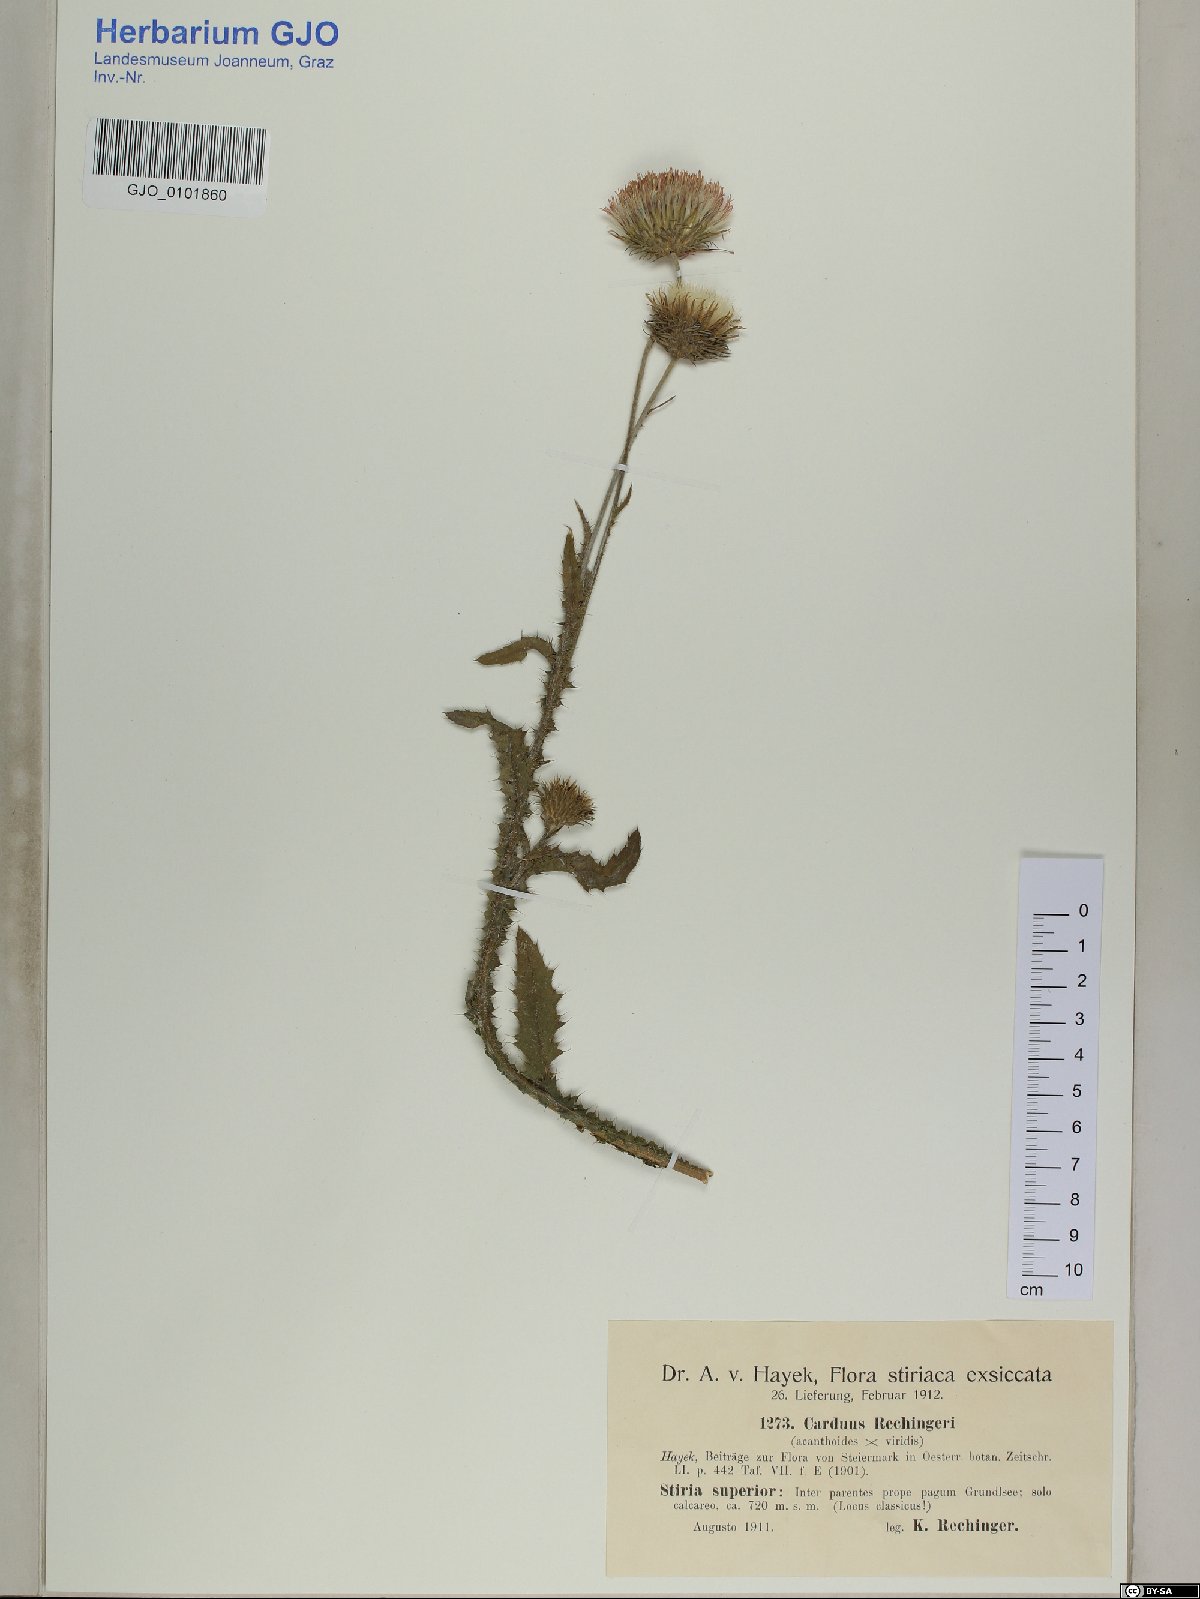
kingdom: Plantae
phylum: Tracheophyta
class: Magnoliopsida
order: Asterales
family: Asteraceae
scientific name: Asteraceae
